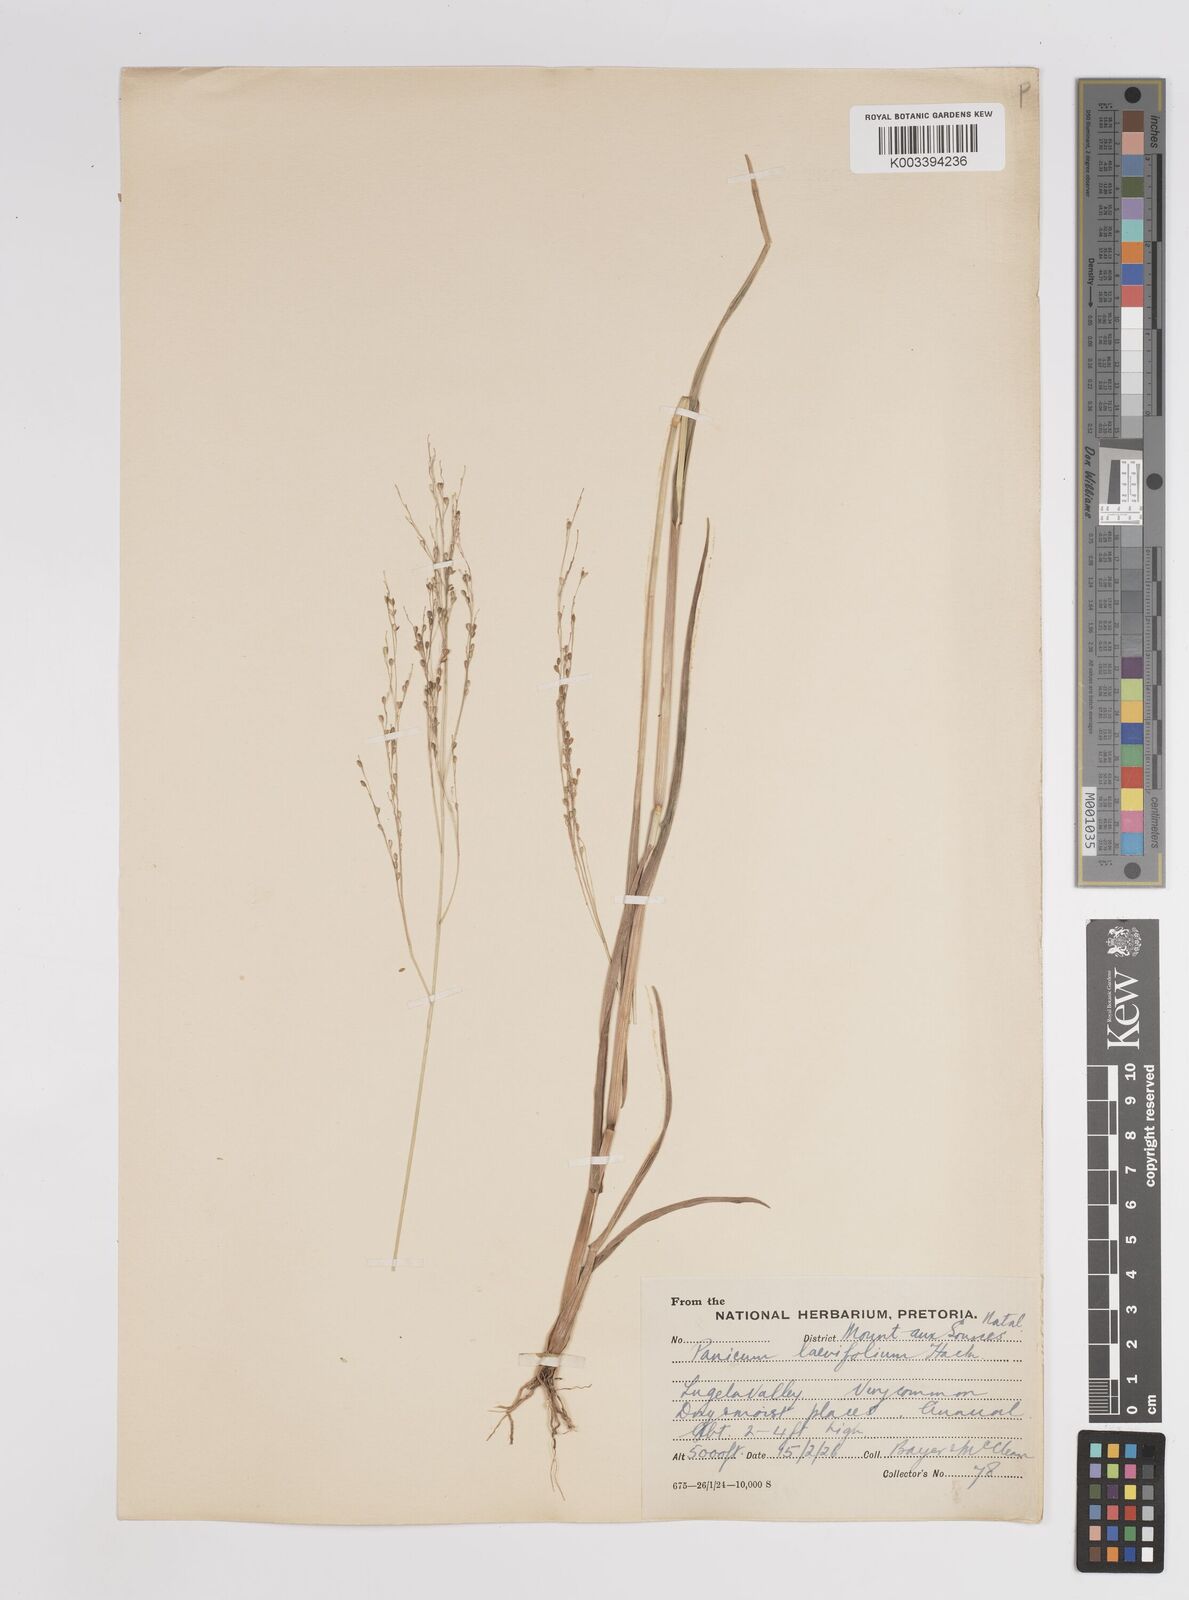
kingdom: Plantae
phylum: Tracheophyta
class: Liliopsida
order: Poales
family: Poaceae
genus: Panicum
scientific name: Panicum schinzii
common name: Sweet grass
